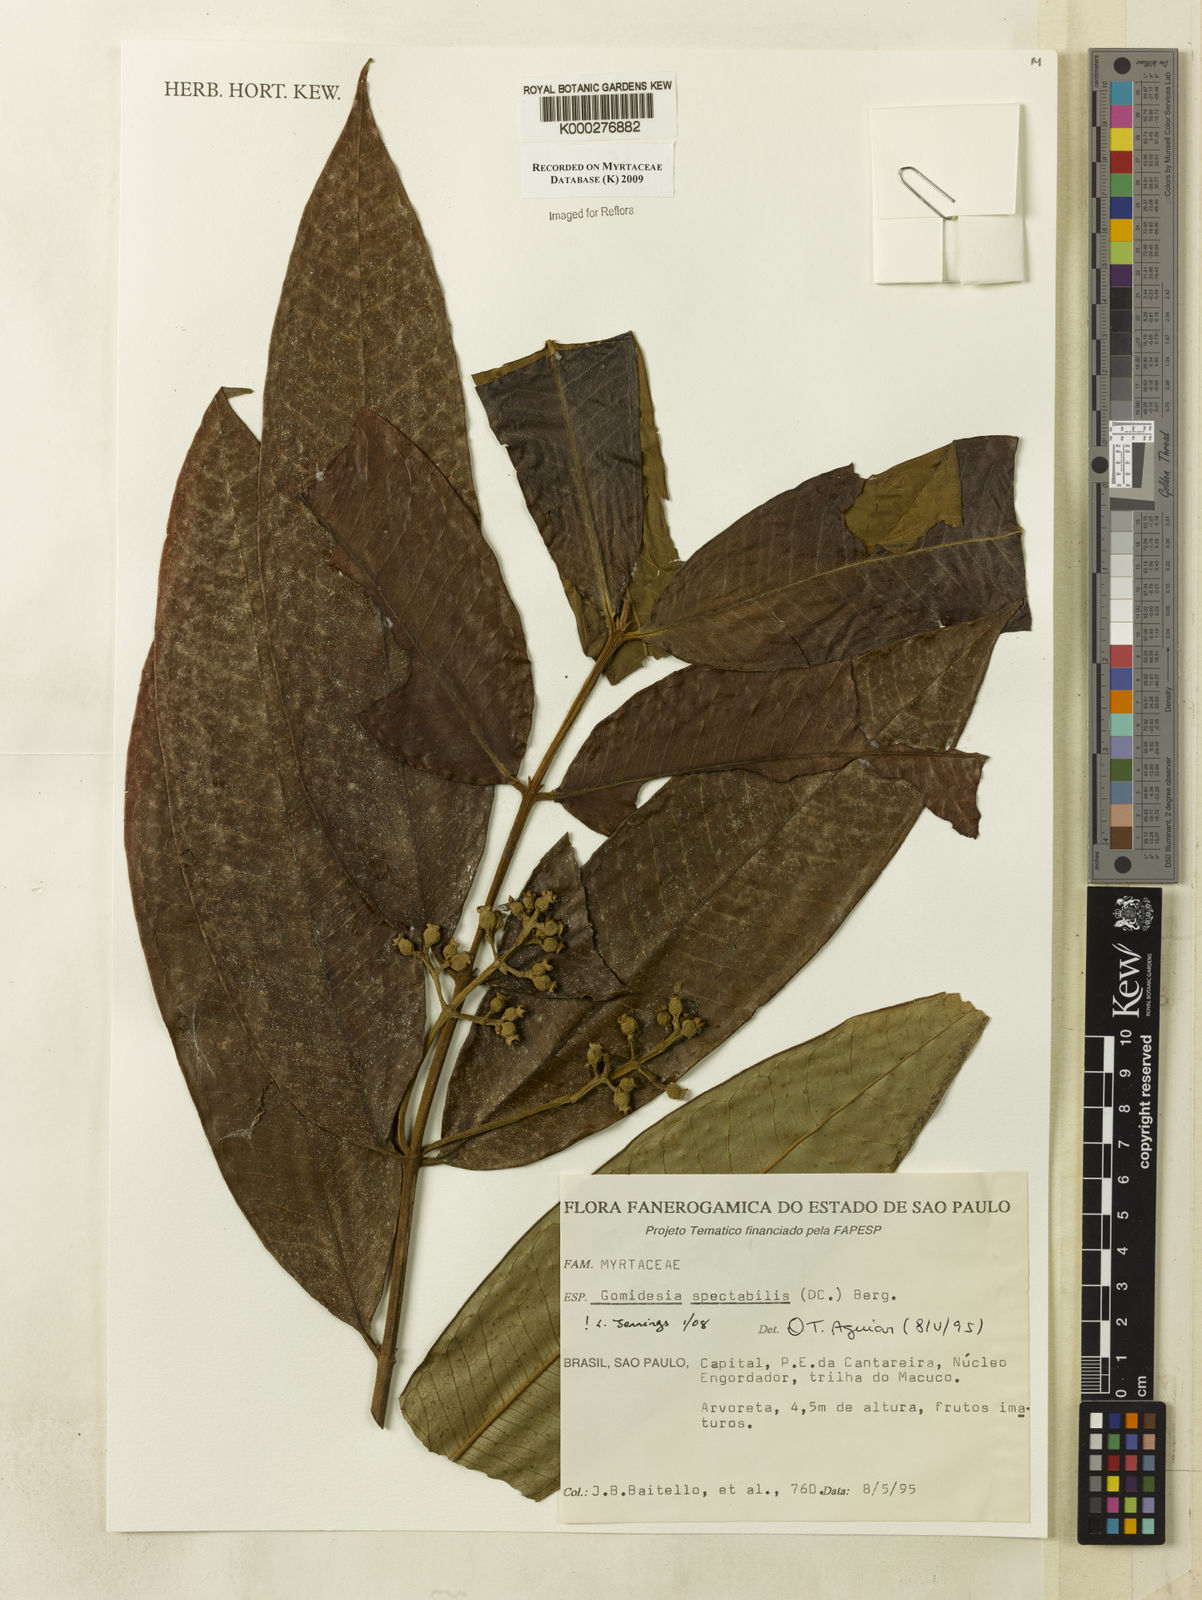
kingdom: Plantae
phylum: Tracheophyta
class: Magnoliopsida
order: Myrtales
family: Myrtaceae
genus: Myrcia
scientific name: Myrcia spectabilis
